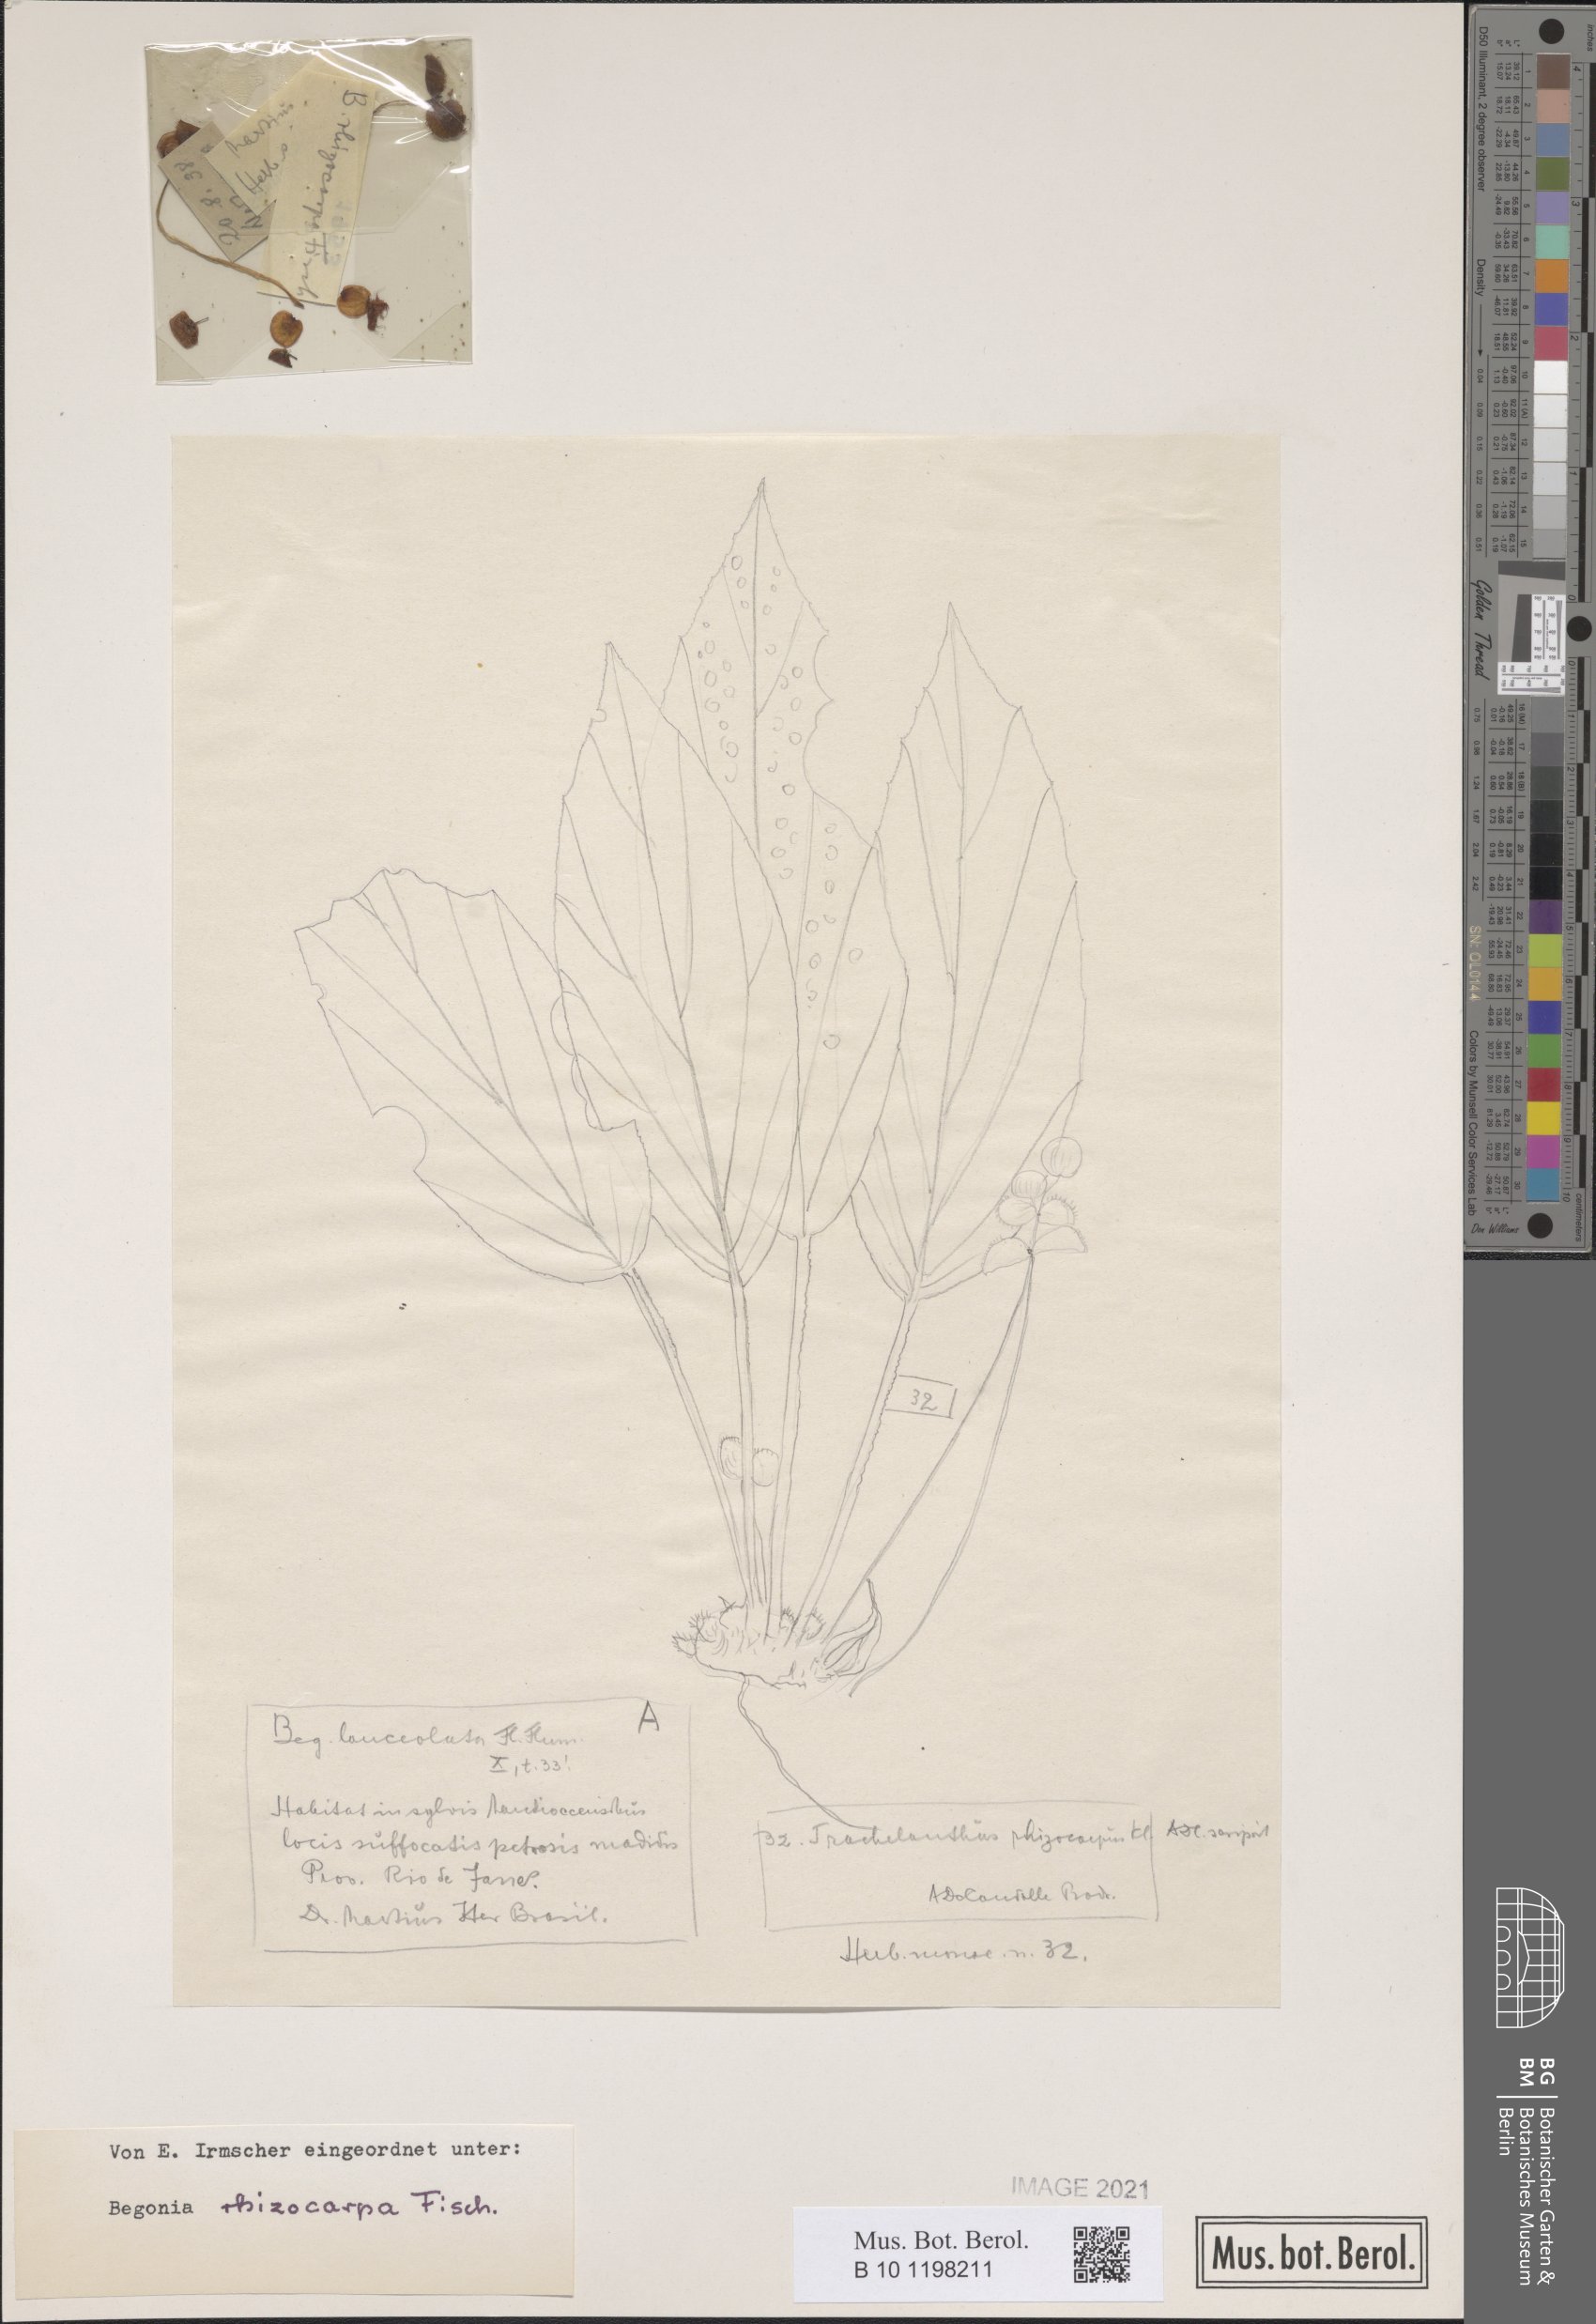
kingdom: Plantae
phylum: Tracheophyta
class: Magnoliopsida
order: Cucurbitales
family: Begoniaceae
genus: Begonia
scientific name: Begonia depauperata
